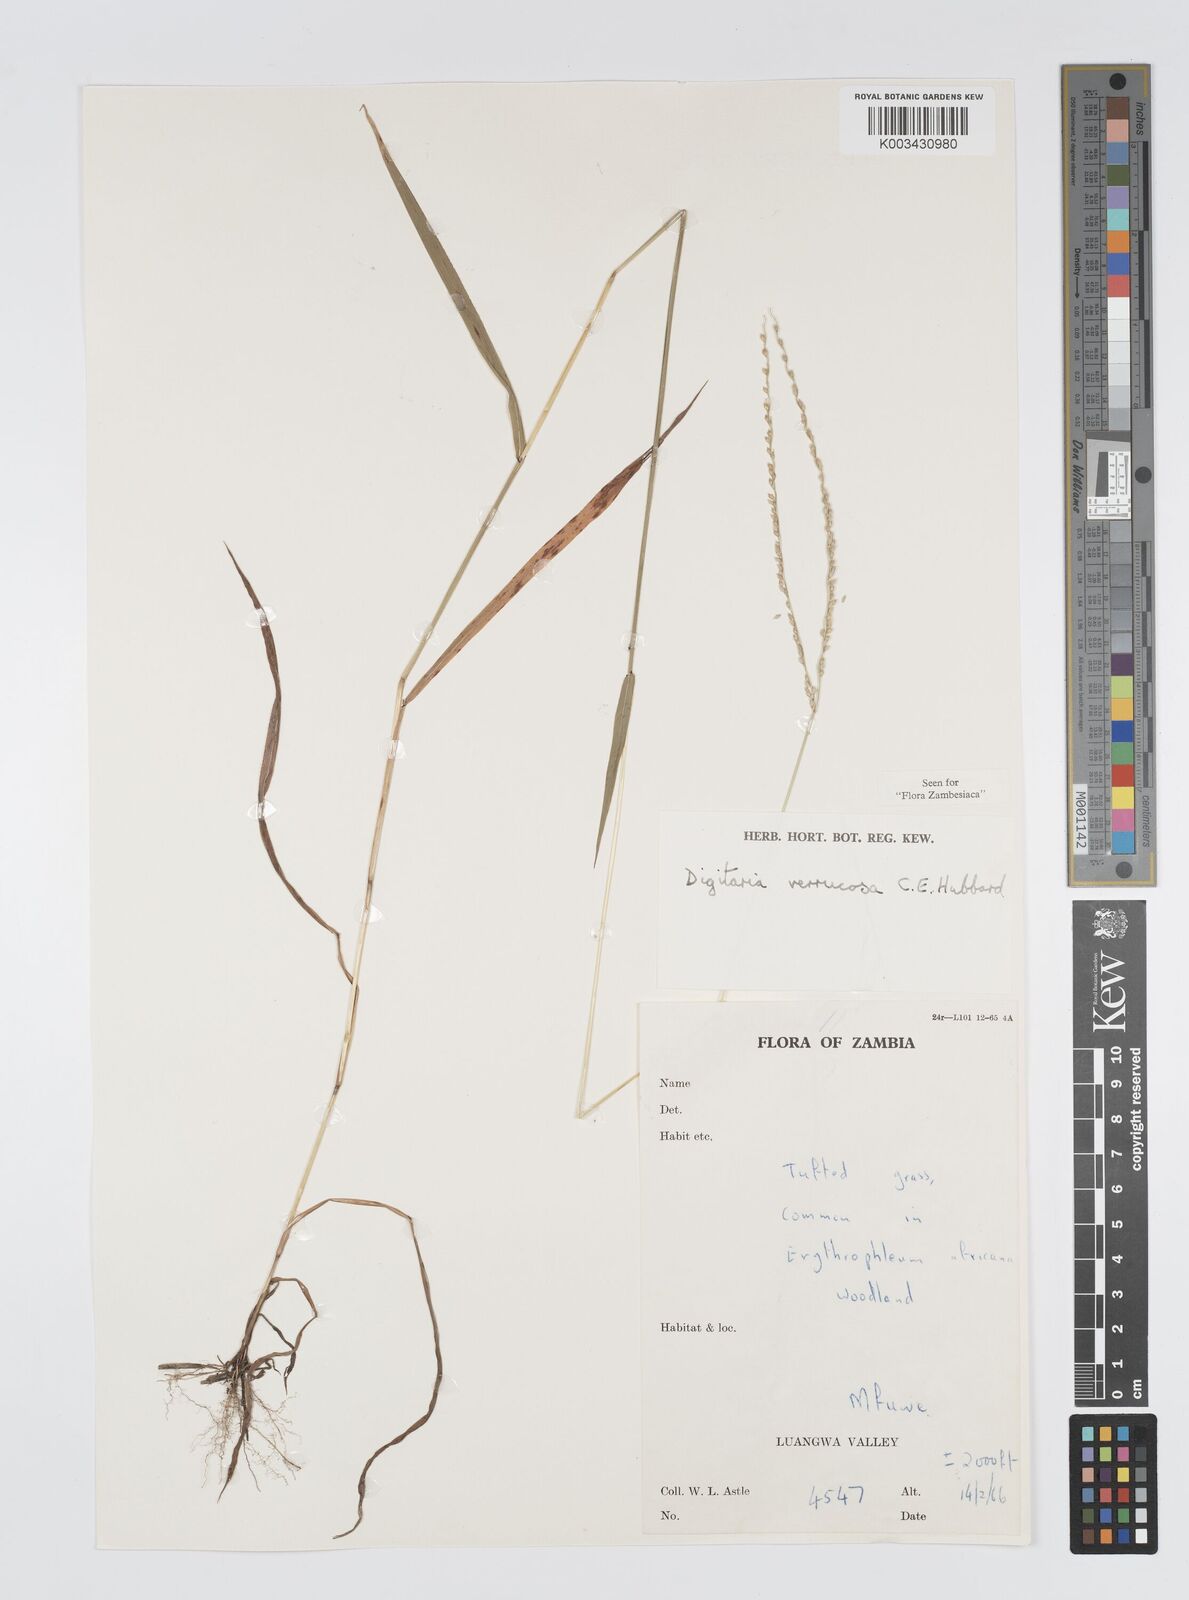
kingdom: Plantae
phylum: Tracheophyta
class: Liliopsida
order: Poales
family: Poaceae
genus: Digitaria
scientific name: Digitaria angolensis
